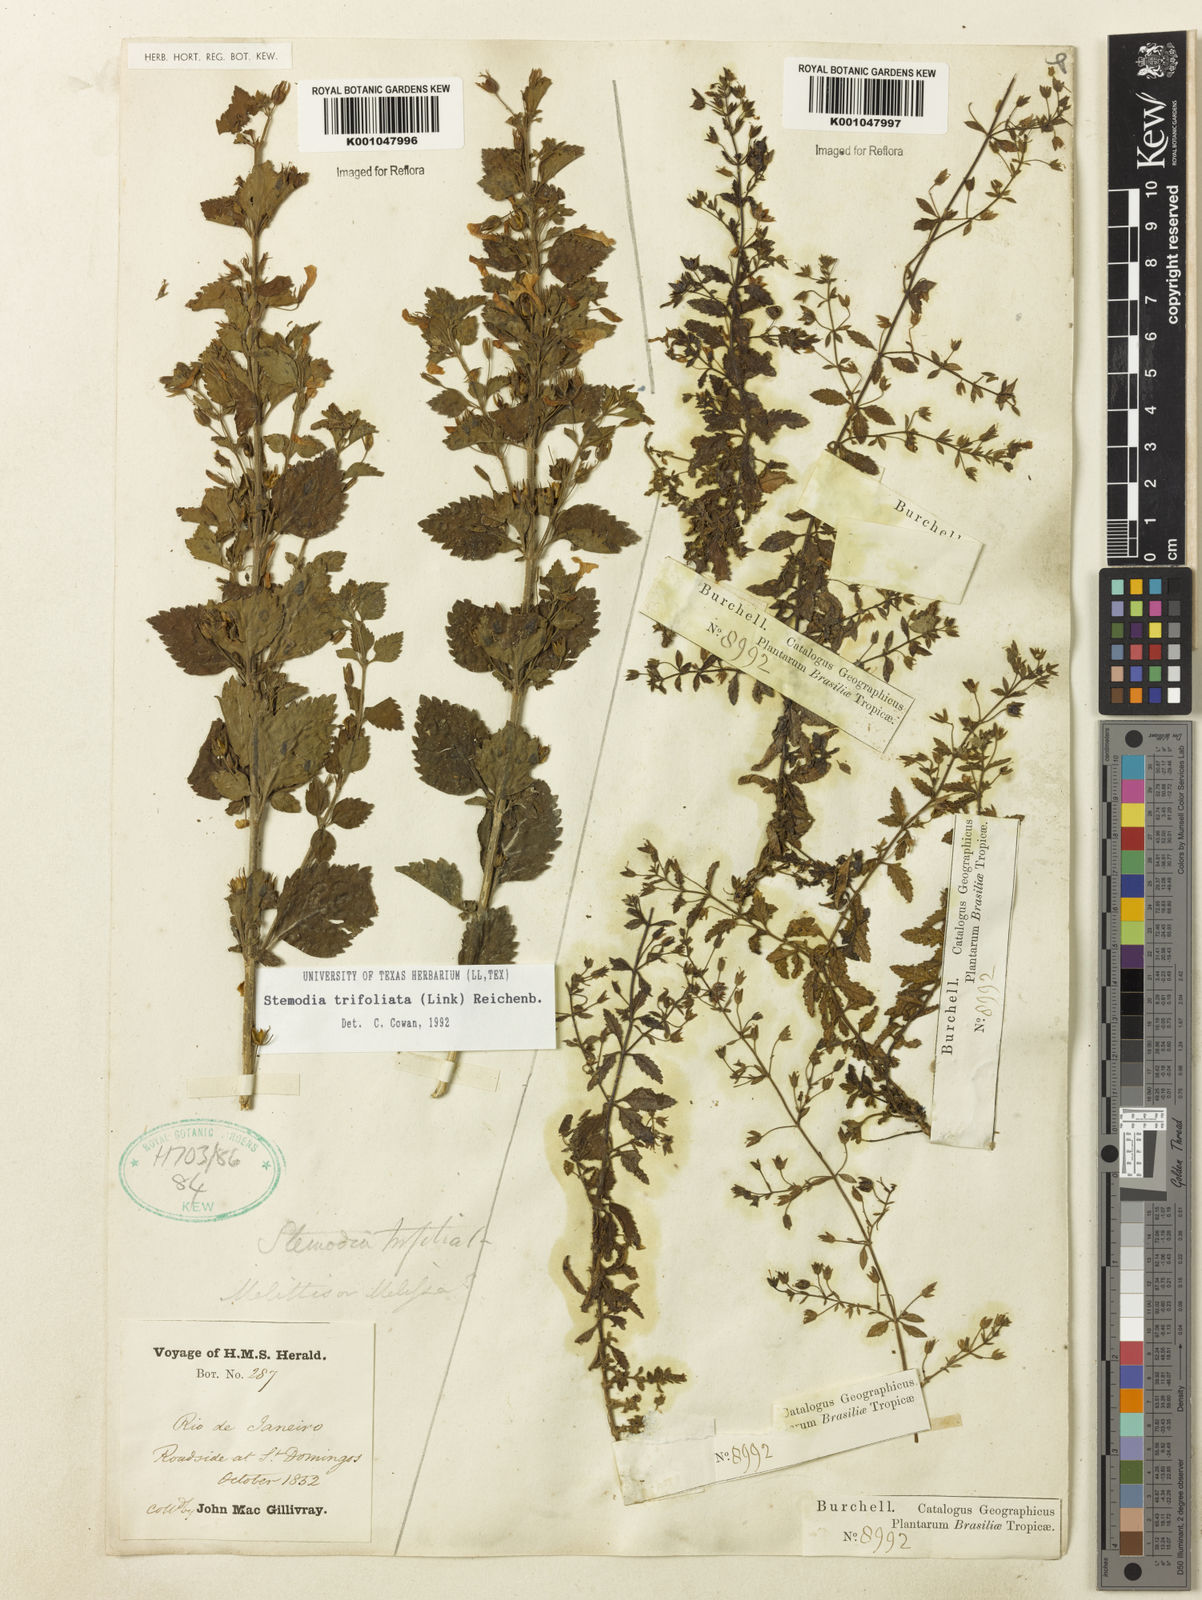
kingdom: Plantae
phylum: Tracheophyta
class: Magnoliopsida
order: Lamiales
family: Plantaginaceae
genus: Stemodia
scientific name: Stemodia trifoliata
